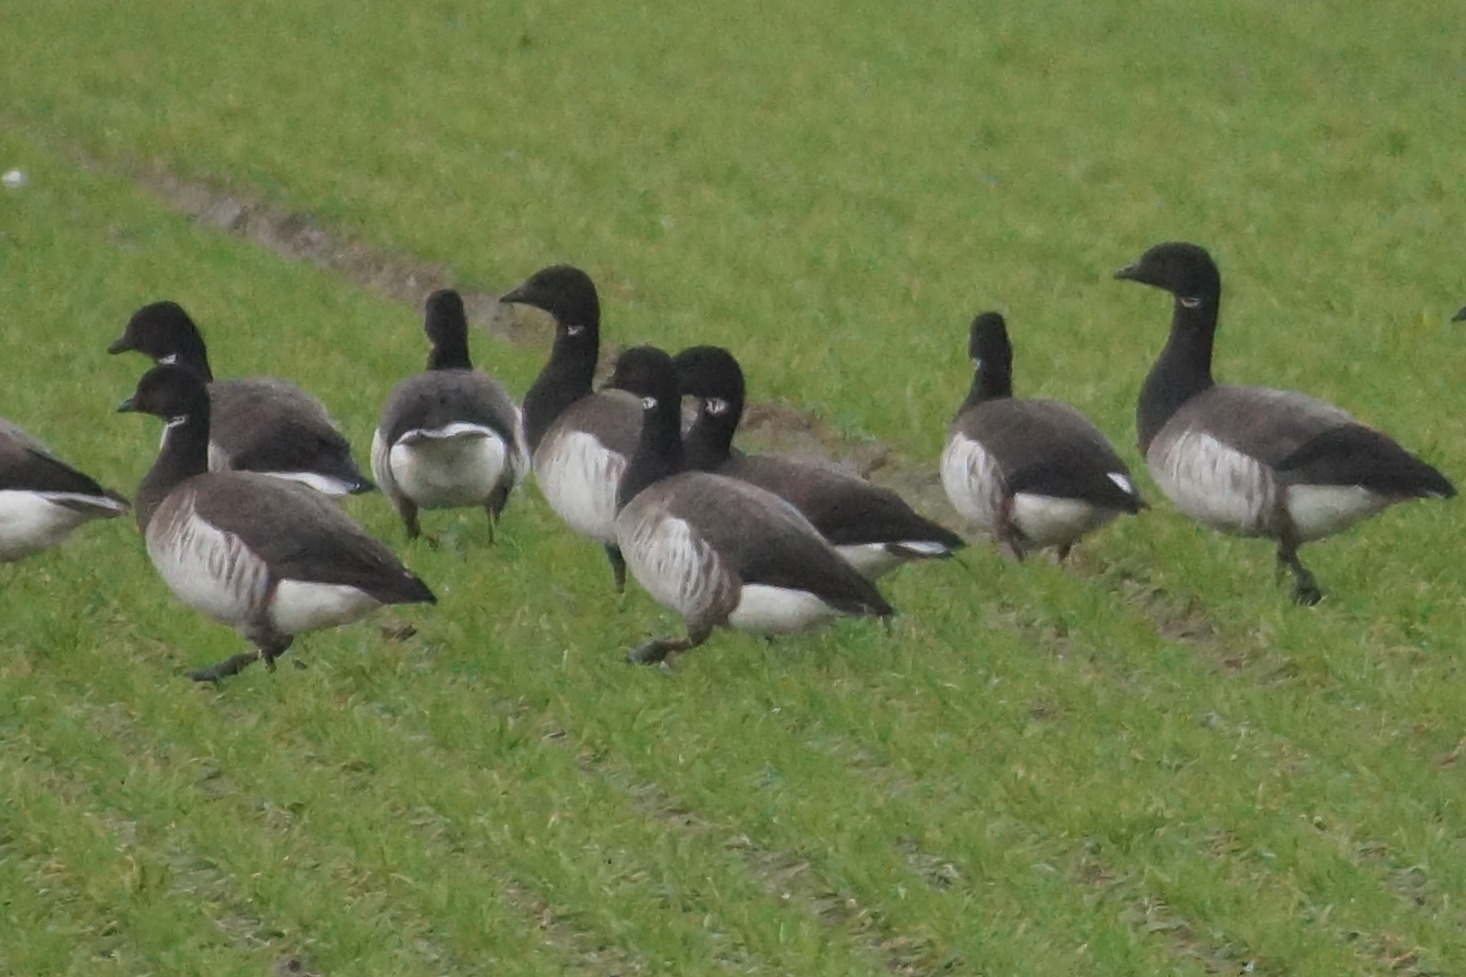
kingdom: Animalia
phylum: Chordata
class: Aves
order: Anseriformes
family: Anatidae
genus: Branta
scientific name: Branta bernicla
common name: Lysbuget knortegås
